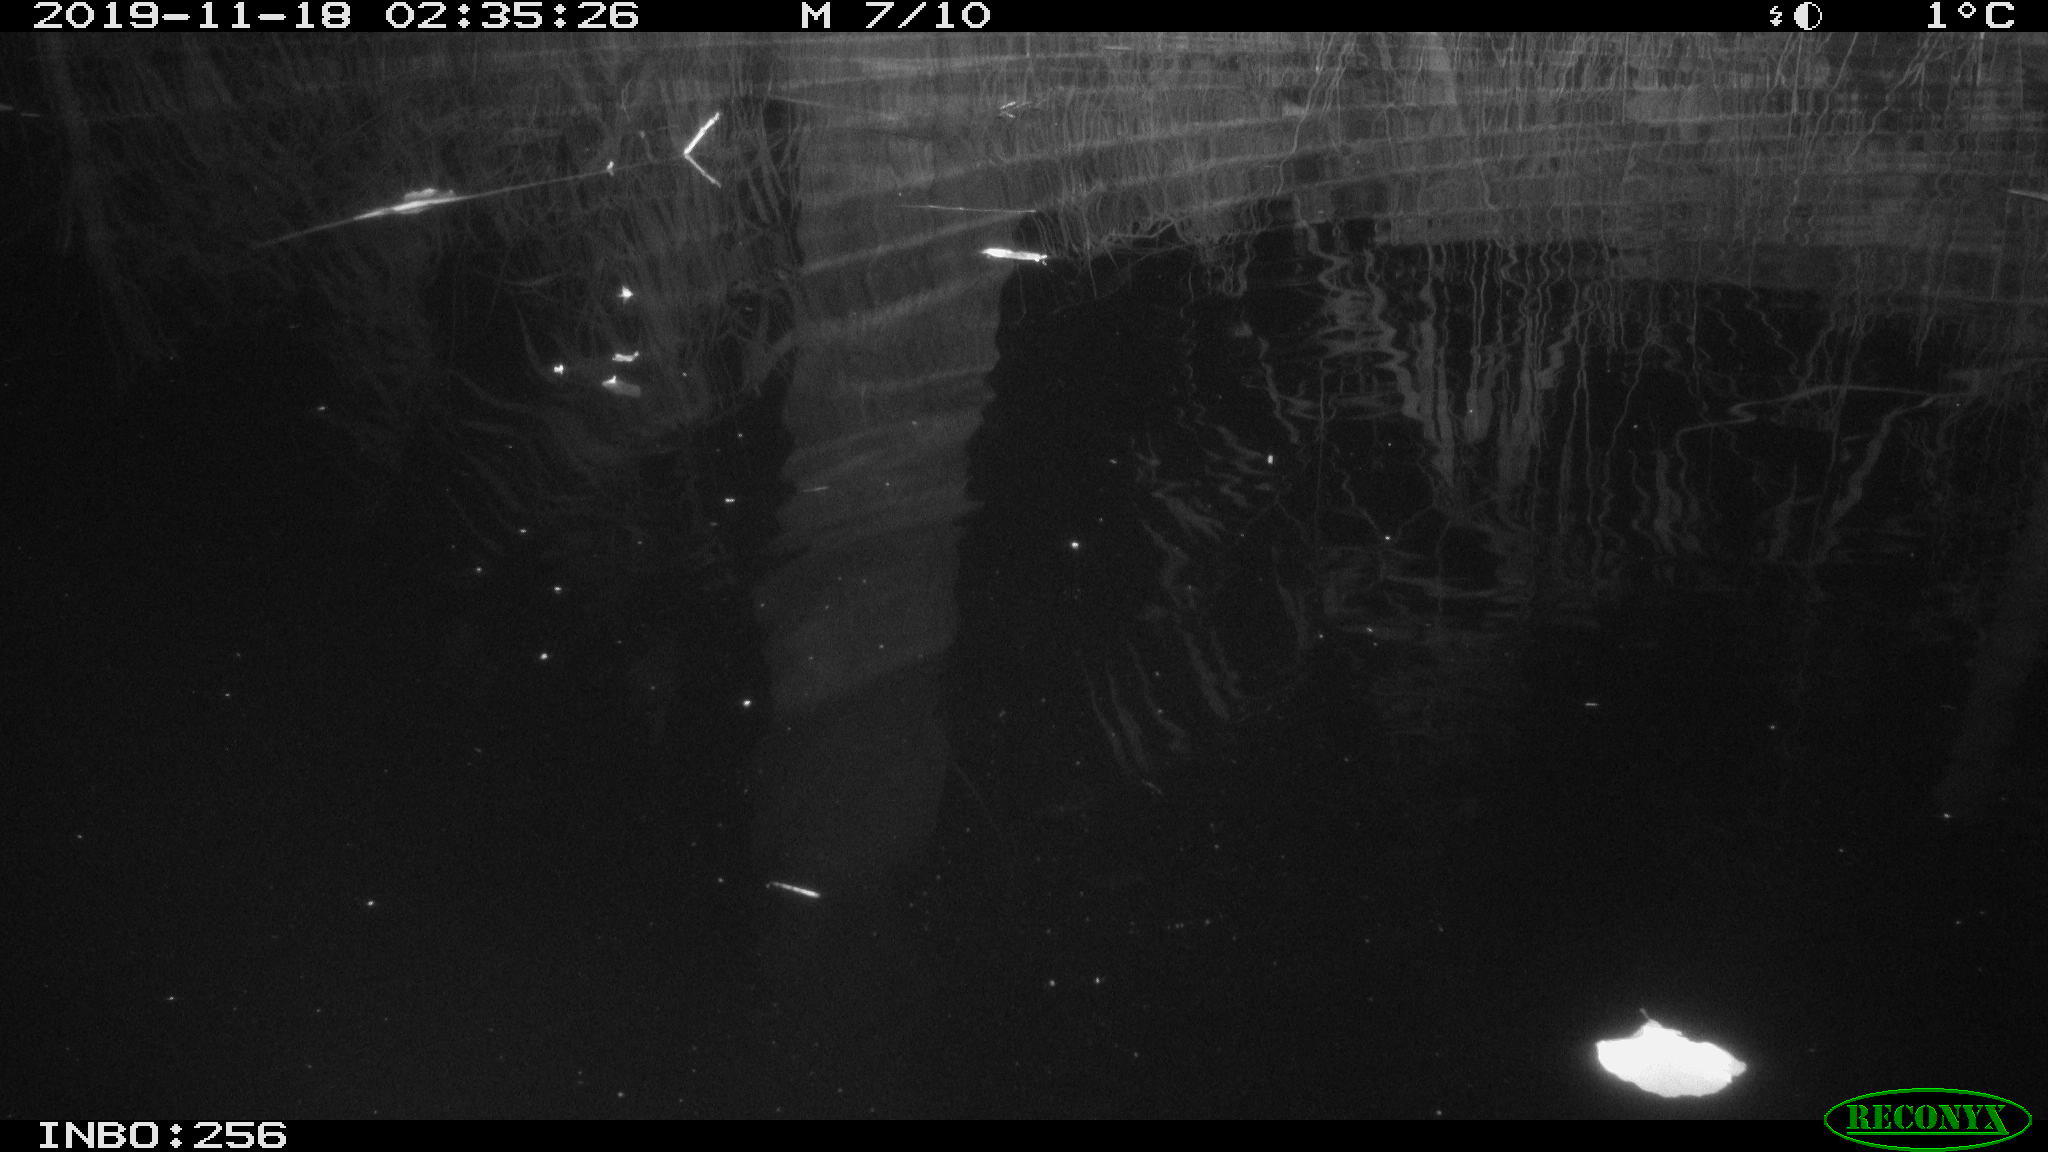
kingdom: Animalia
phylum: Chordata
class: Mammalia
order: Rodentia
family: Muridae
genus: Rattus
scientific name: Rattus norvegicus
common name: Brown rat
